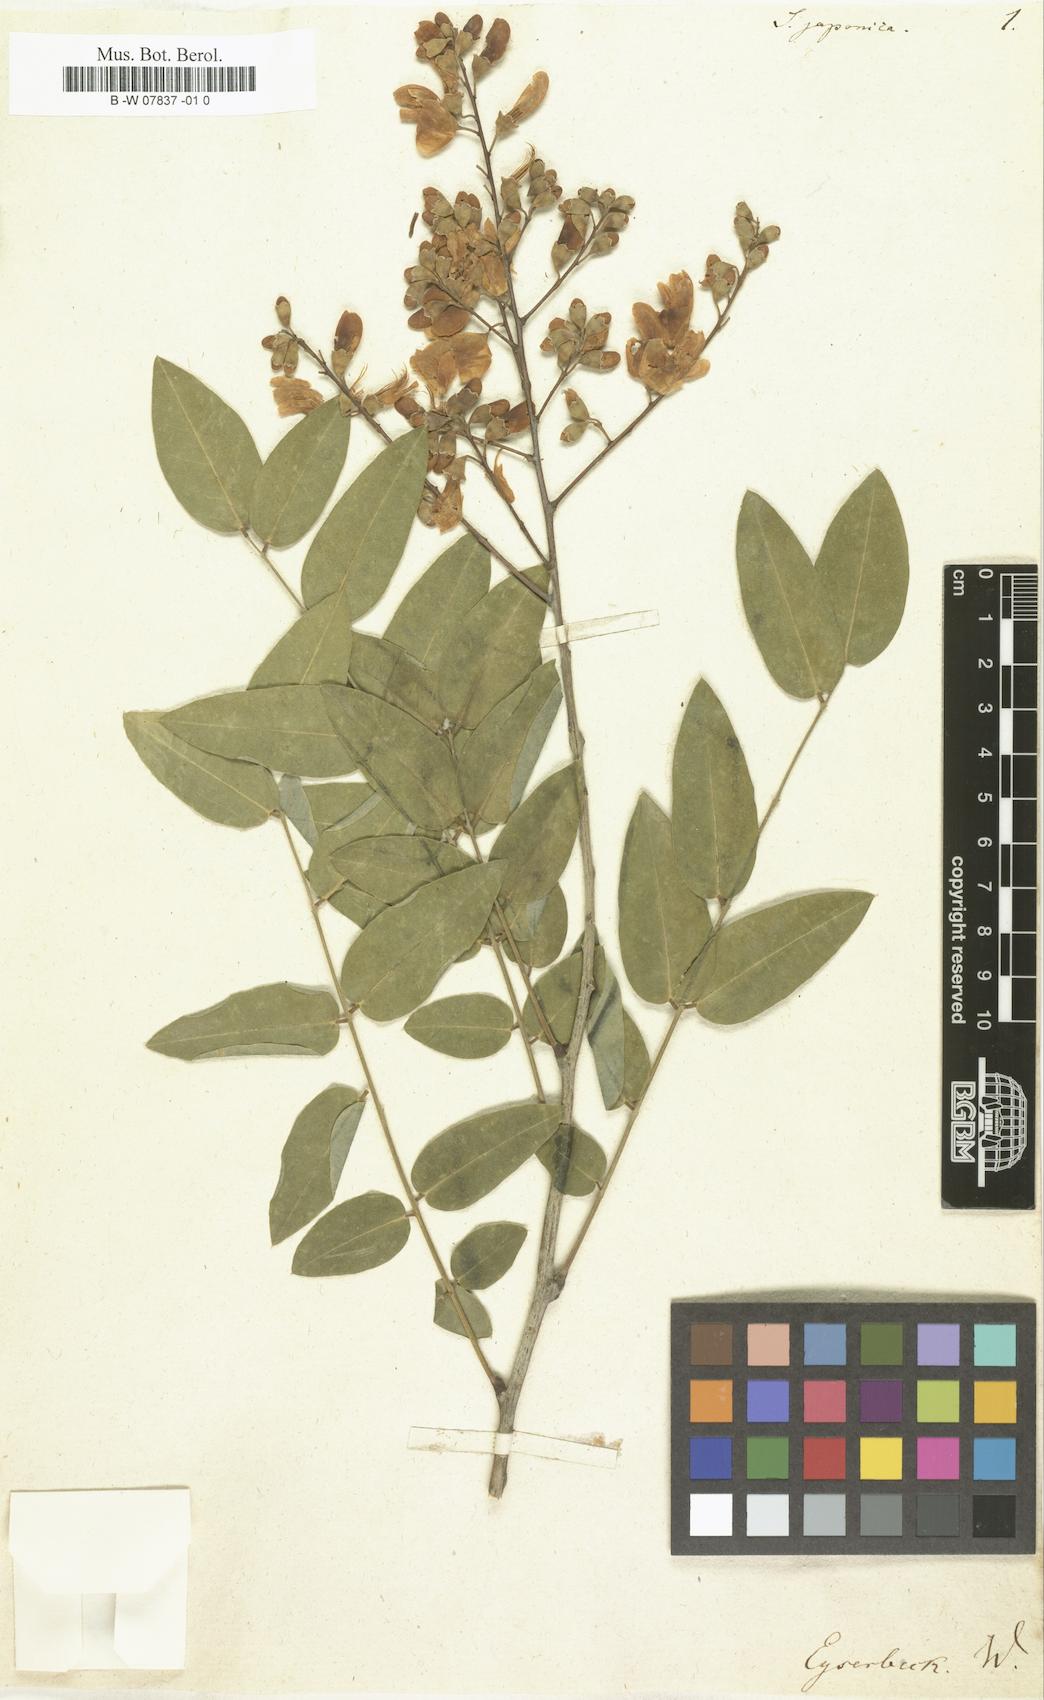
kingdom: Plantae
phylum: Tracheophyta
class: Magnoliopsida
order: Fabales
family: Fabaceae
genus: Styphnolobium
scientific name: Styphnolobium japonicum
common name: Chinese scholartree
